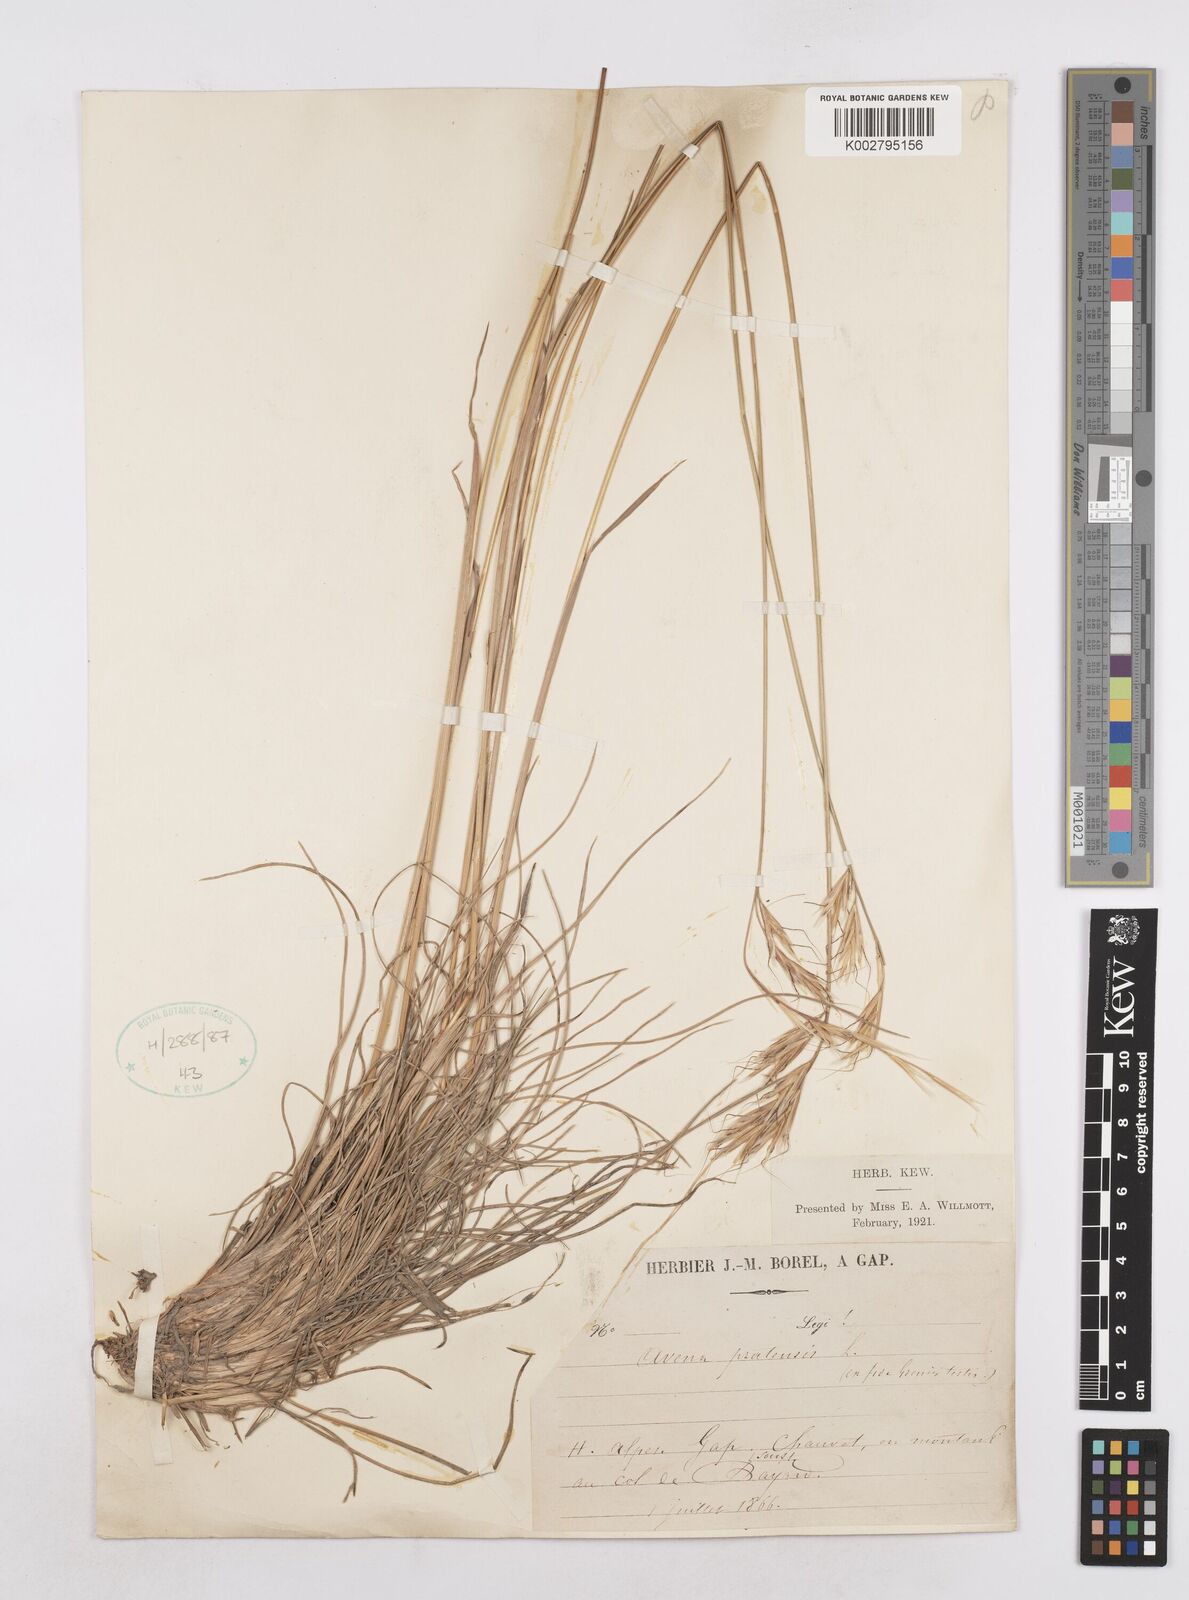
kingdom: Plantae
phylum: Tracheophyta
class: Liliopsida
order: Poales
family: Poaceae
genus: Helictochloa
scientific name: Helictochloa pratensis
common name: Meadow oat grass
